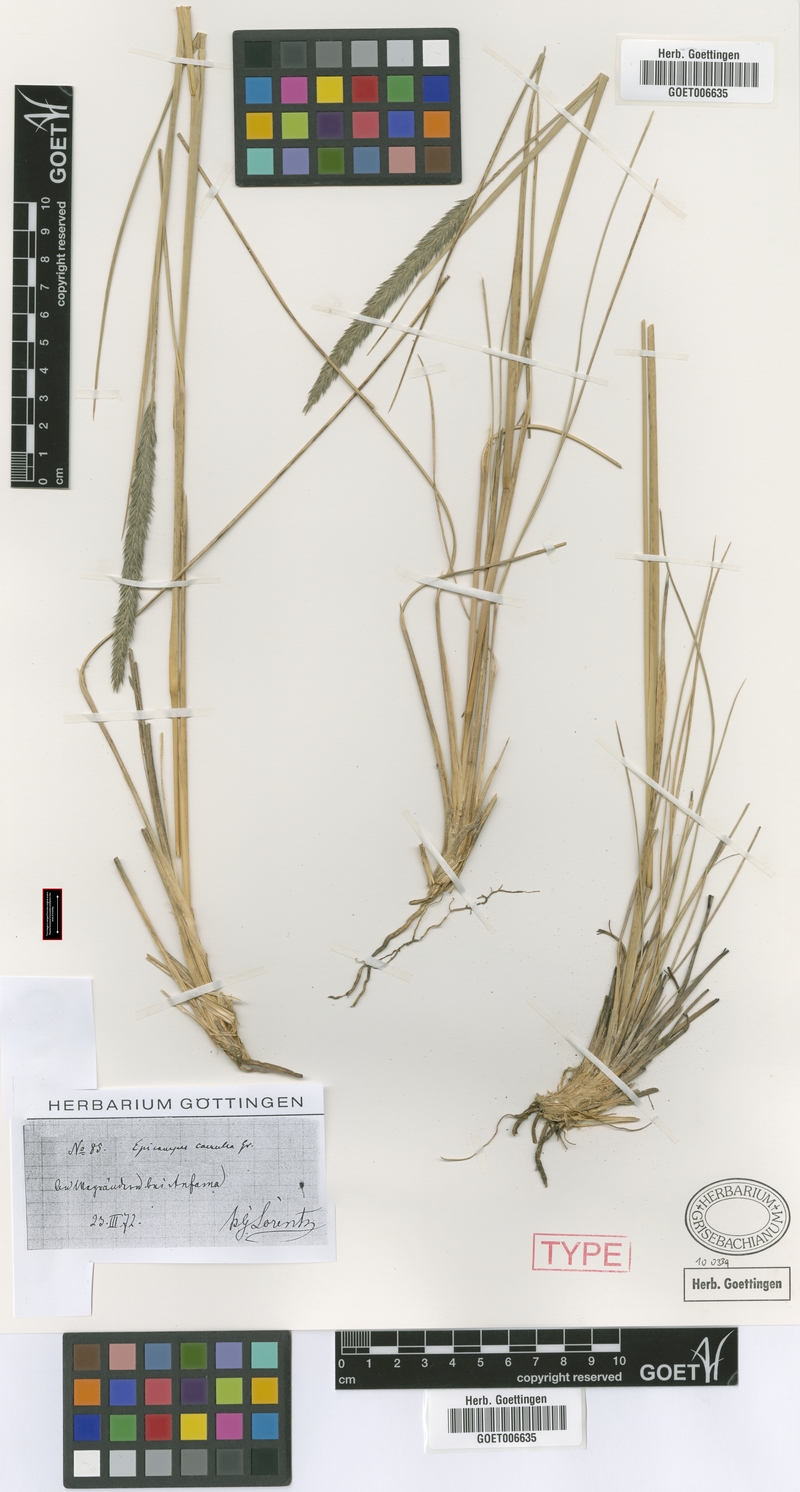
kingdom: Plantae
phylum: Tracheophyta
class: Liliopsida
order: Poales
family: Poaceae
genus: Muhlenbergia
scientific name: Muhlenbergia angustata
